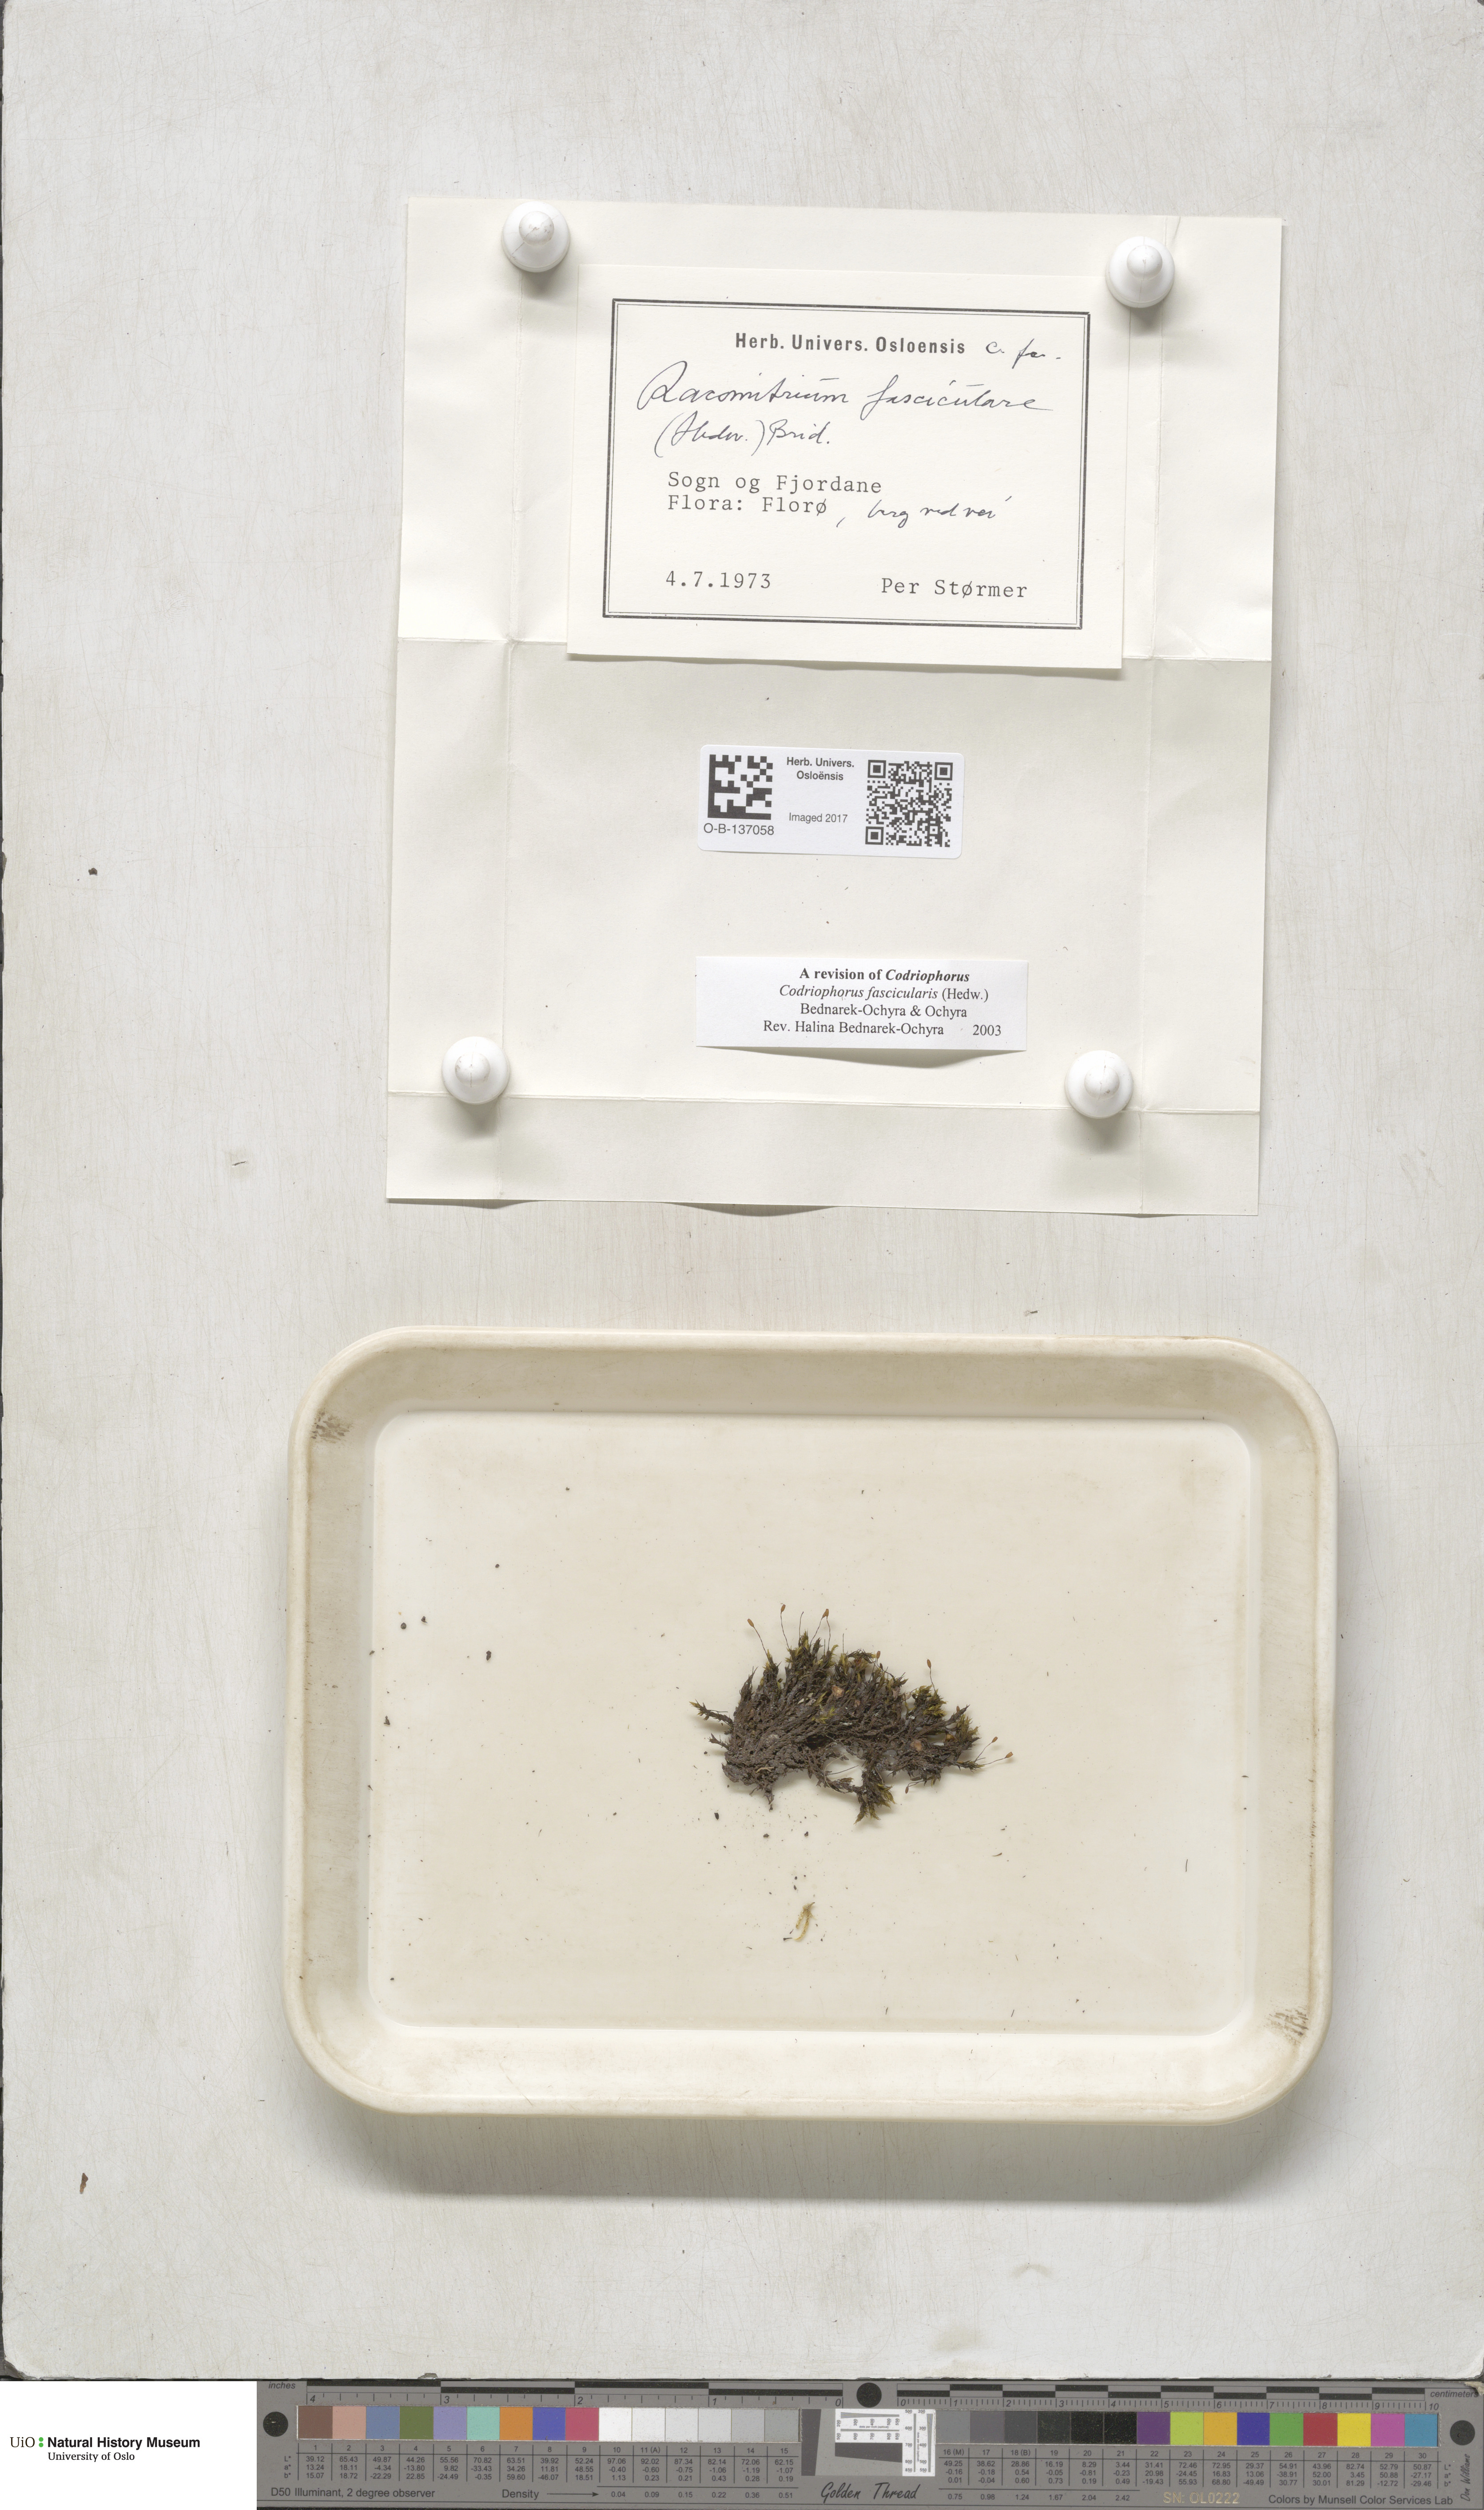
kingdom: Plantae
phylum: Bryophyta
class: Bryopsida
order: Grimmiales
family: Grimmiaceae
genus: Dilutineuron
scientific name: Dilutineuron fasciculare
